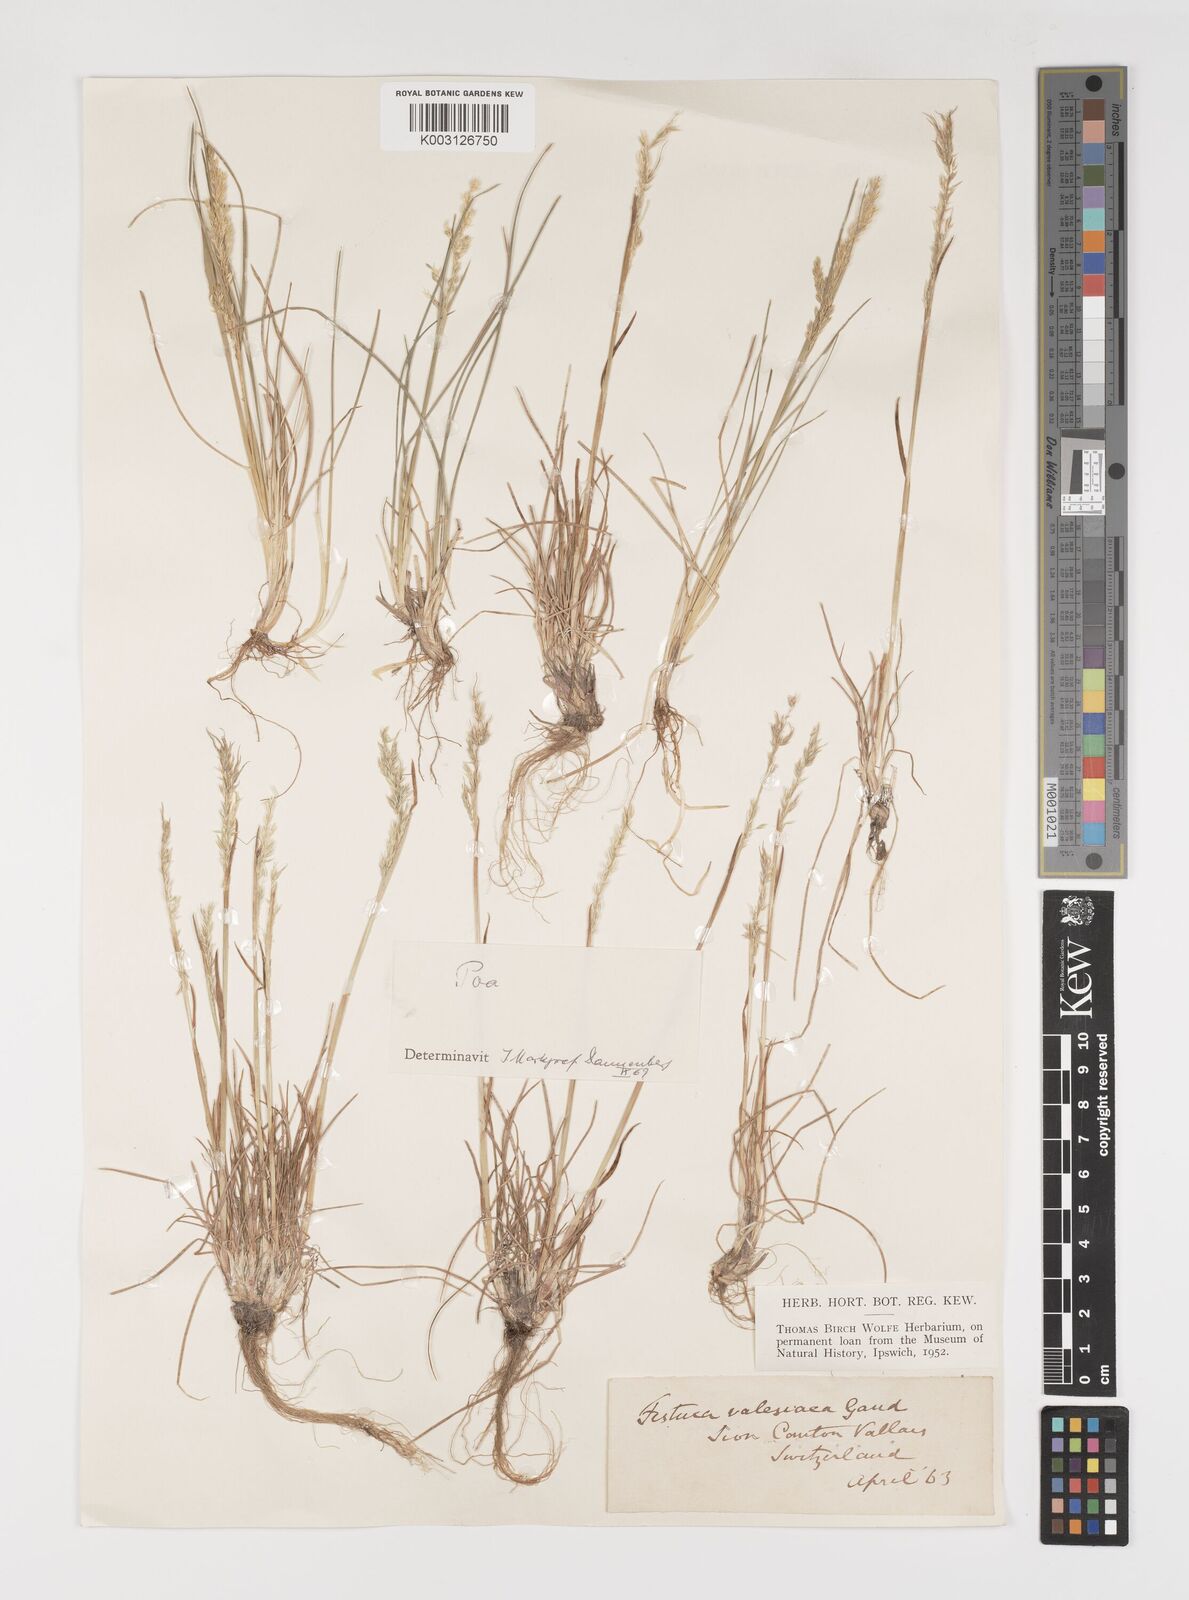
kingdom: Plantae
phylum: Tracheophyta
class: Liliopsida
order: Poales
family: Poaceae
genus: Poa
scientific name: Poa bulbosa
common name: Bulbous bluegrass
